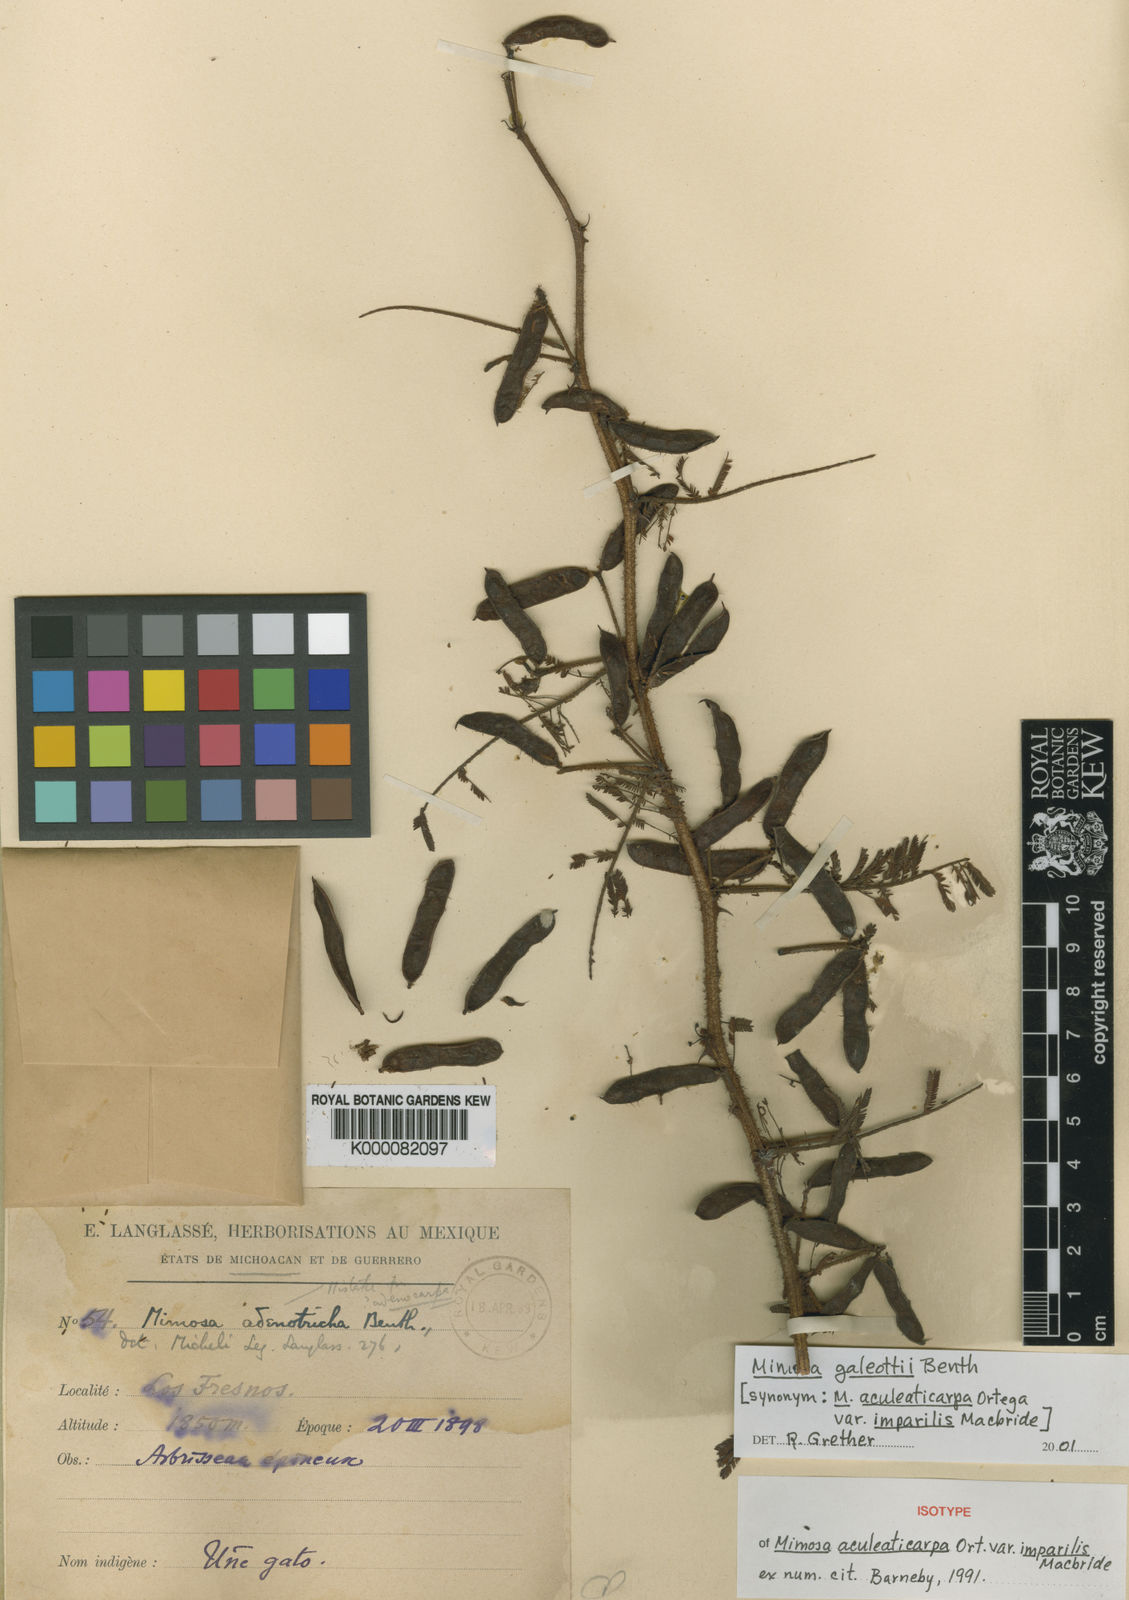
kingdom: Plantae
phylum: Tracheophyta
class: Magnoliopsida
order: Fabales
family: Fabaceae
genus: Mimosa
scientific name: Mimosa galeottii
